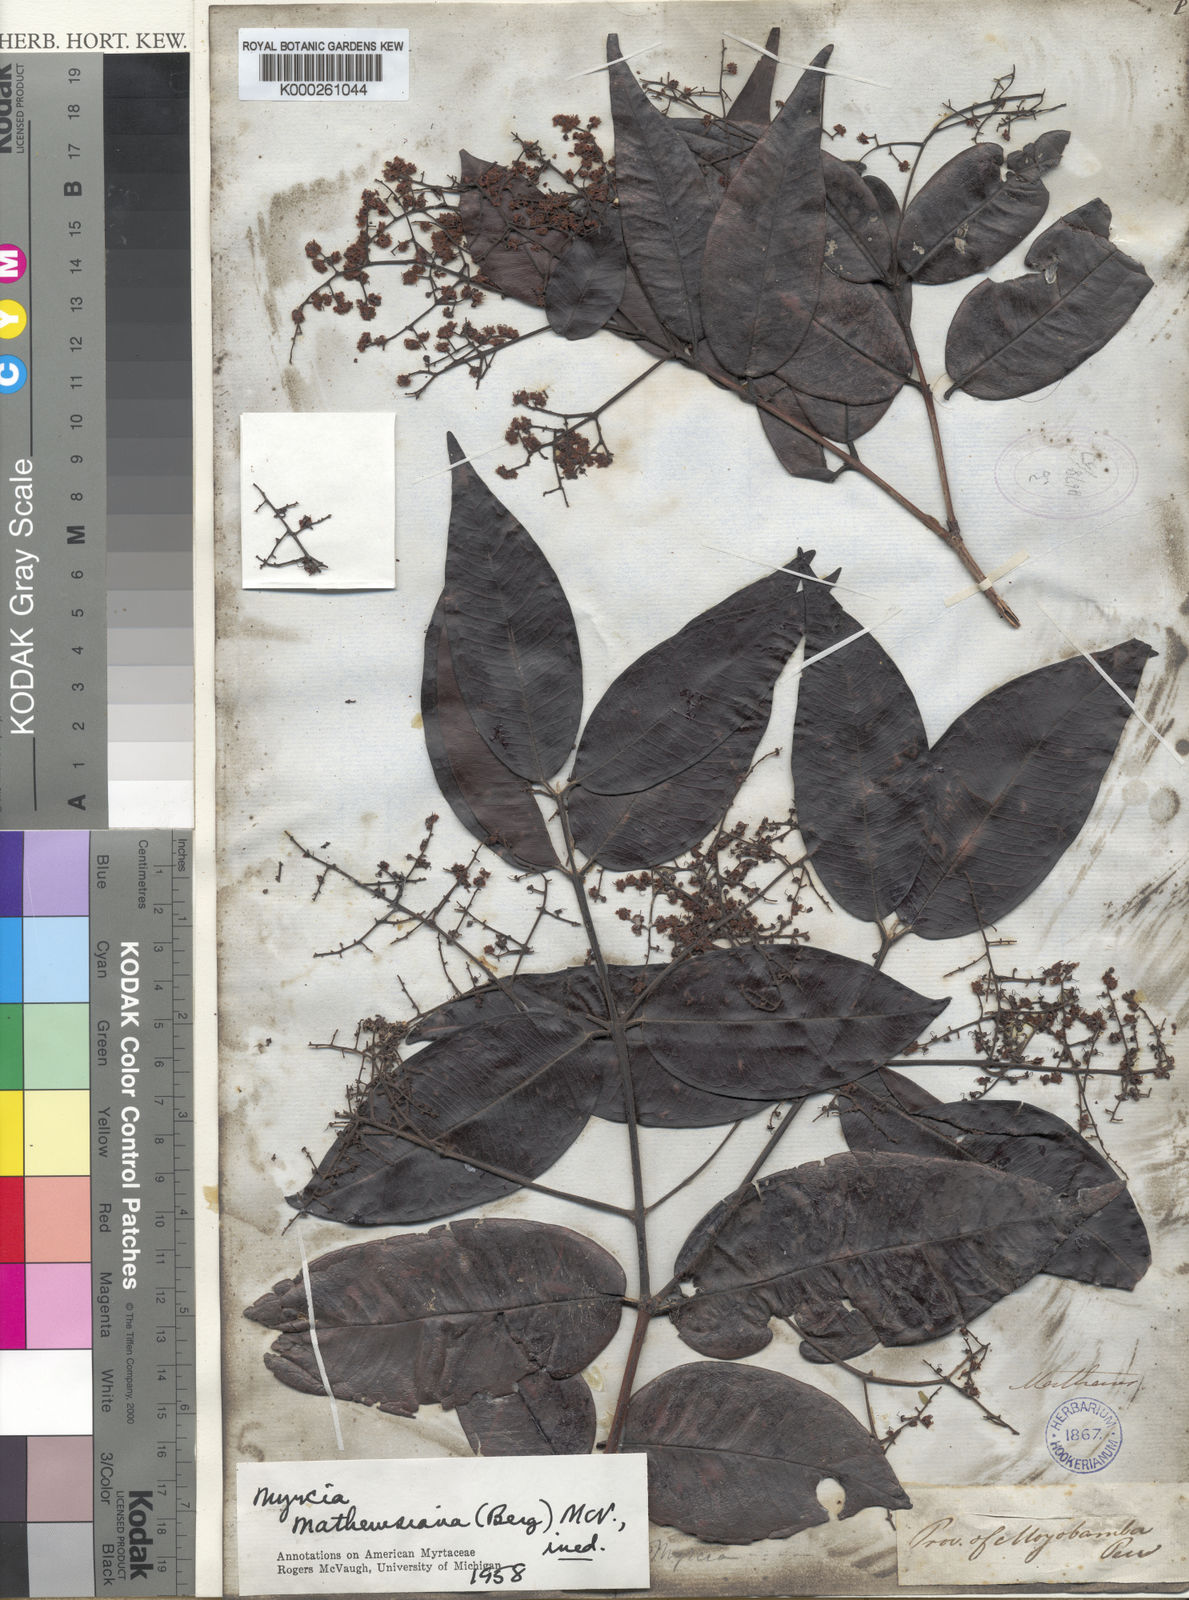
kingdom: Plantae
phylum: Tracheophyta
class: Magnoliopsida
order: Myrtales
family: Myrtaceae
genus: Myrcia
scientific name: Myrcia mathewsiana
